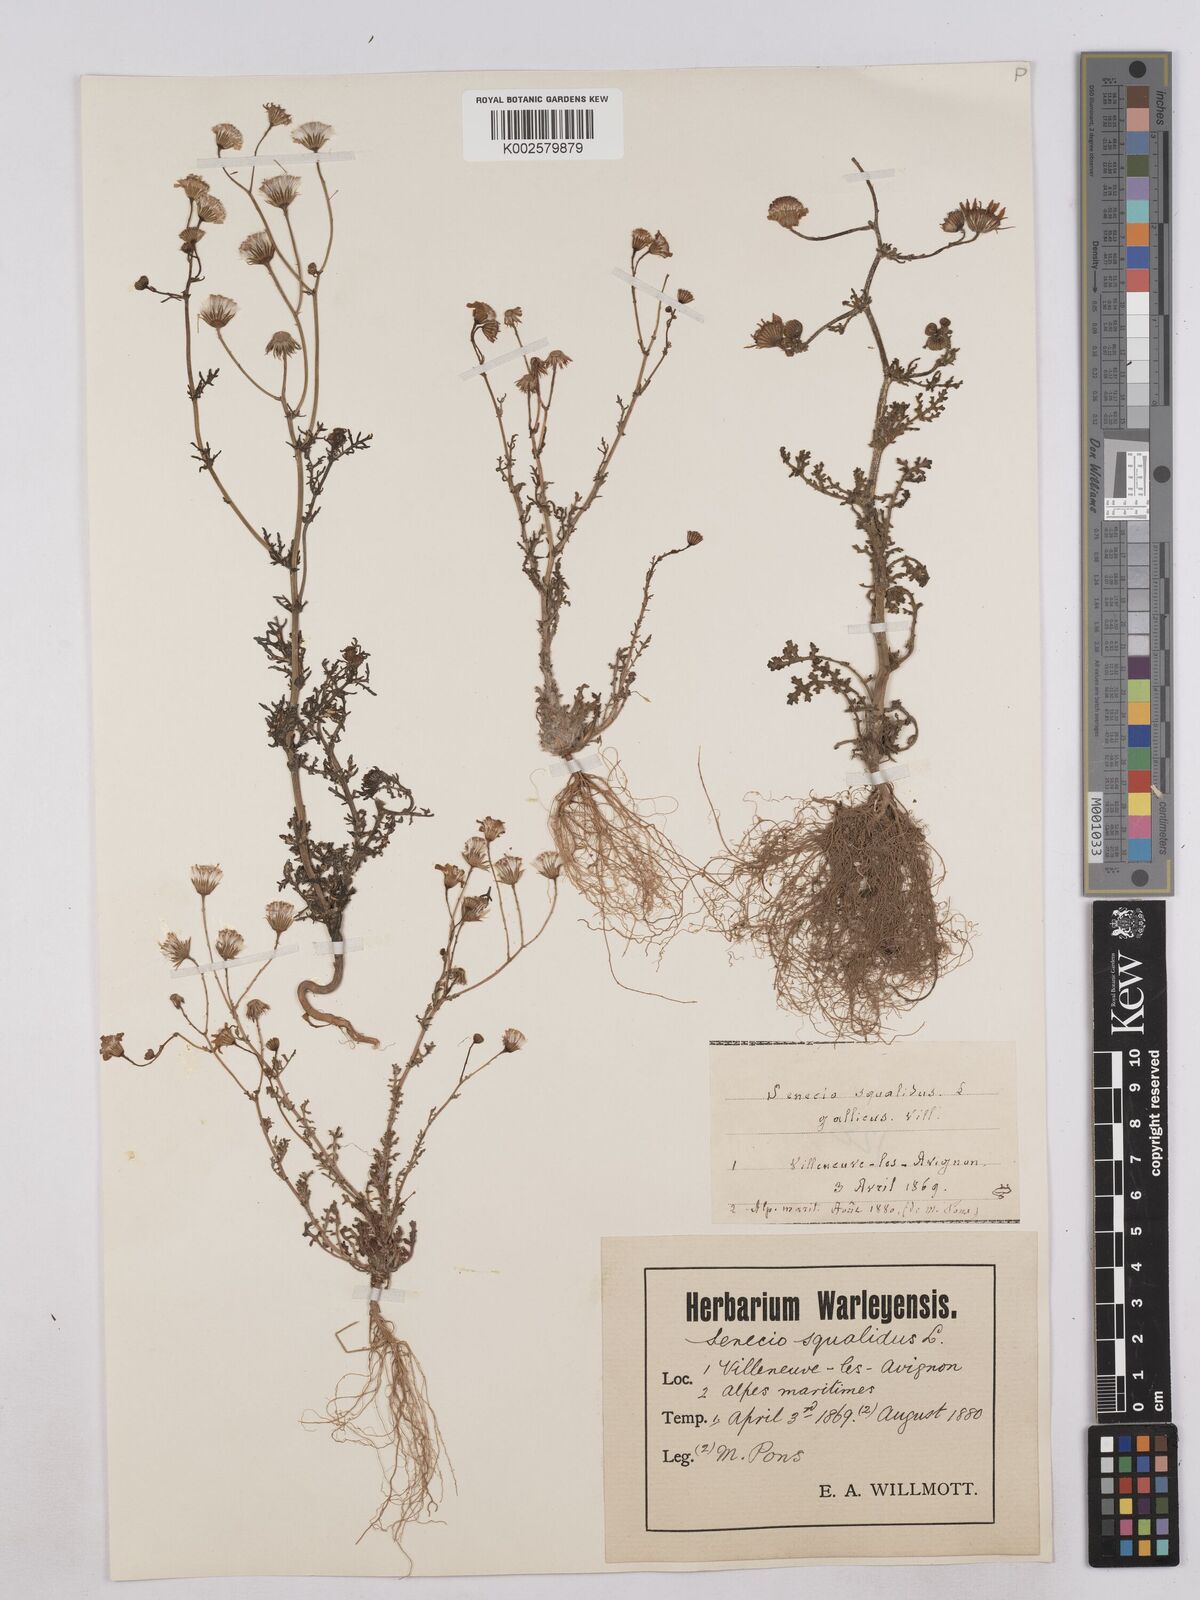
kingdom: Plantae
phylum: Tracheophyta
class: Magnoliopsida
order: Asterales
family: Asteraceae
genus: Senecio
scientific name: Senecio gallicus
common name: French groundsel
